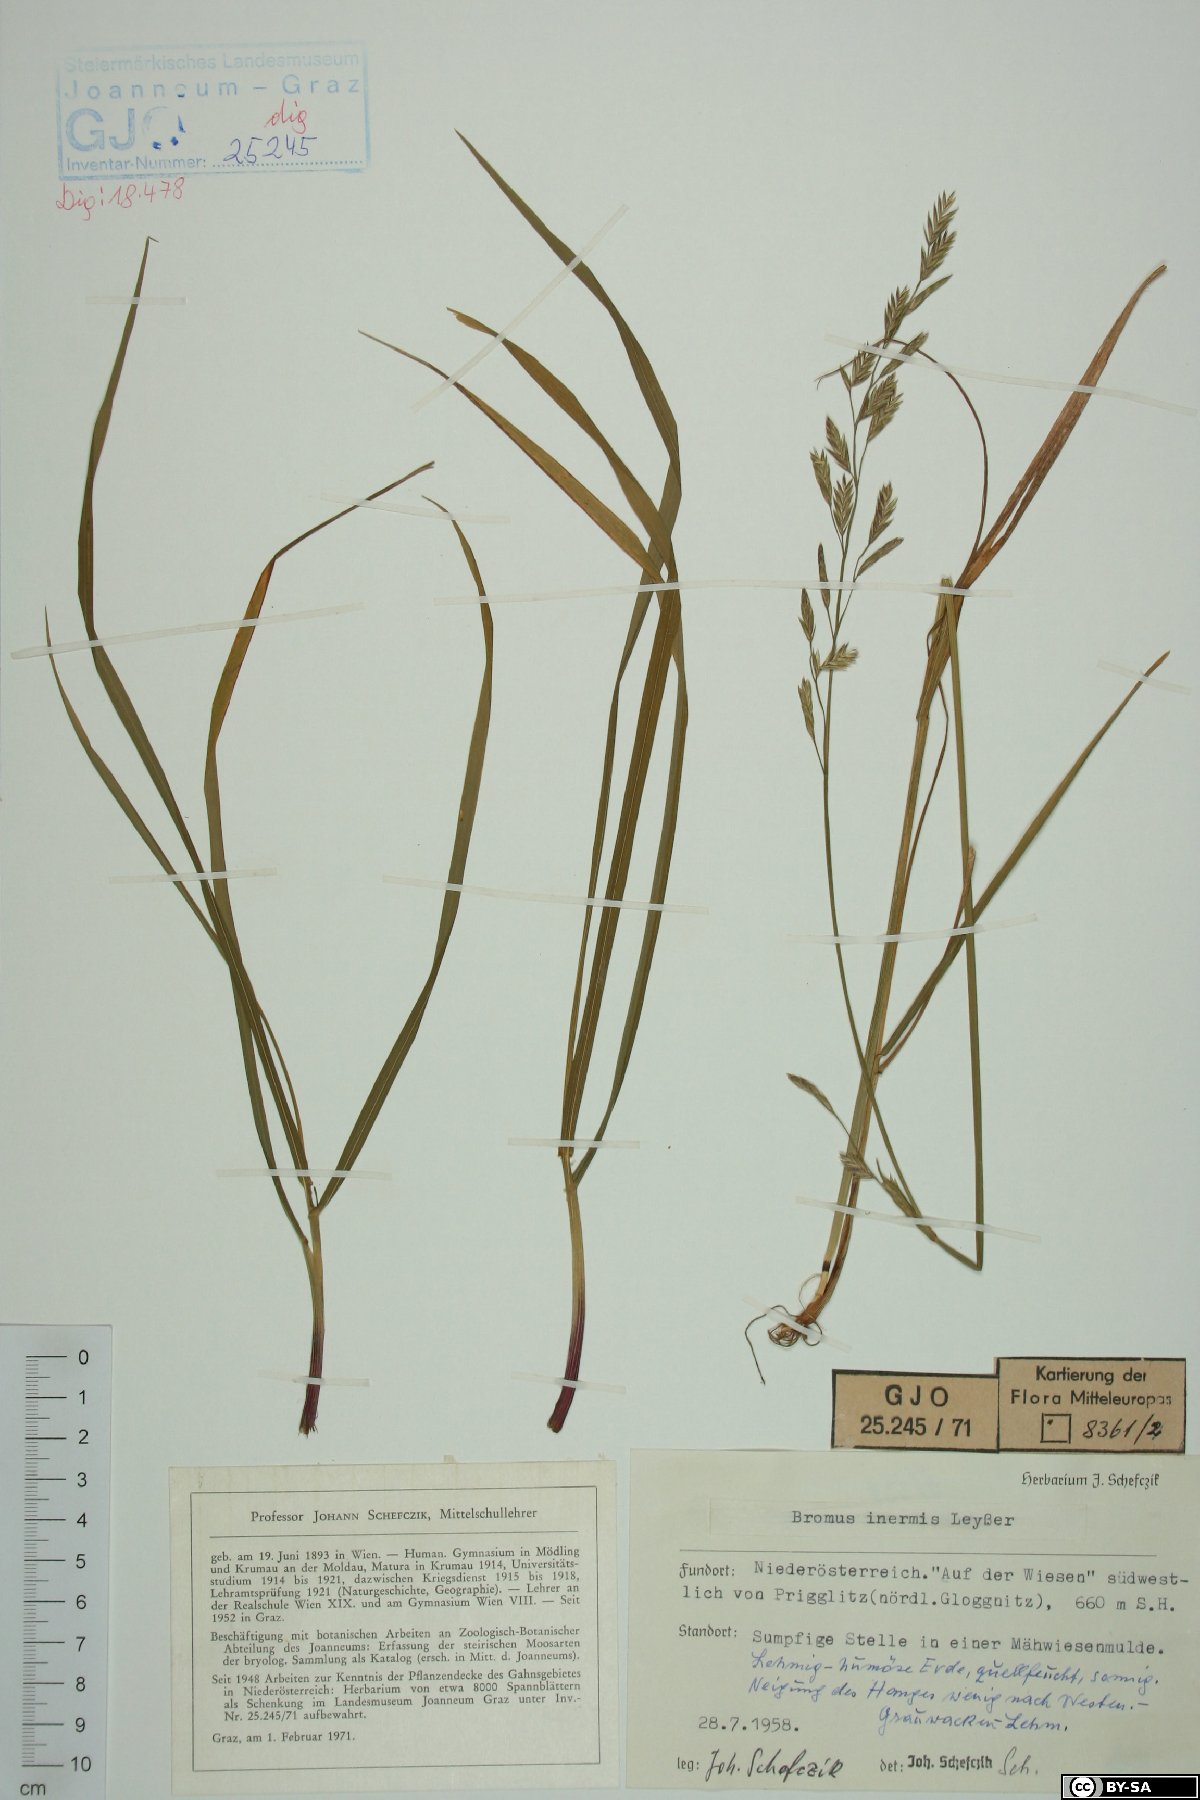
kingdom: Plantae
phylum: Tracheophyta
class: Liliopsida
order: Poales
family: Poaceae
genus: Bromus
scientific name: Bromus inermis
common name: Smooth brome
